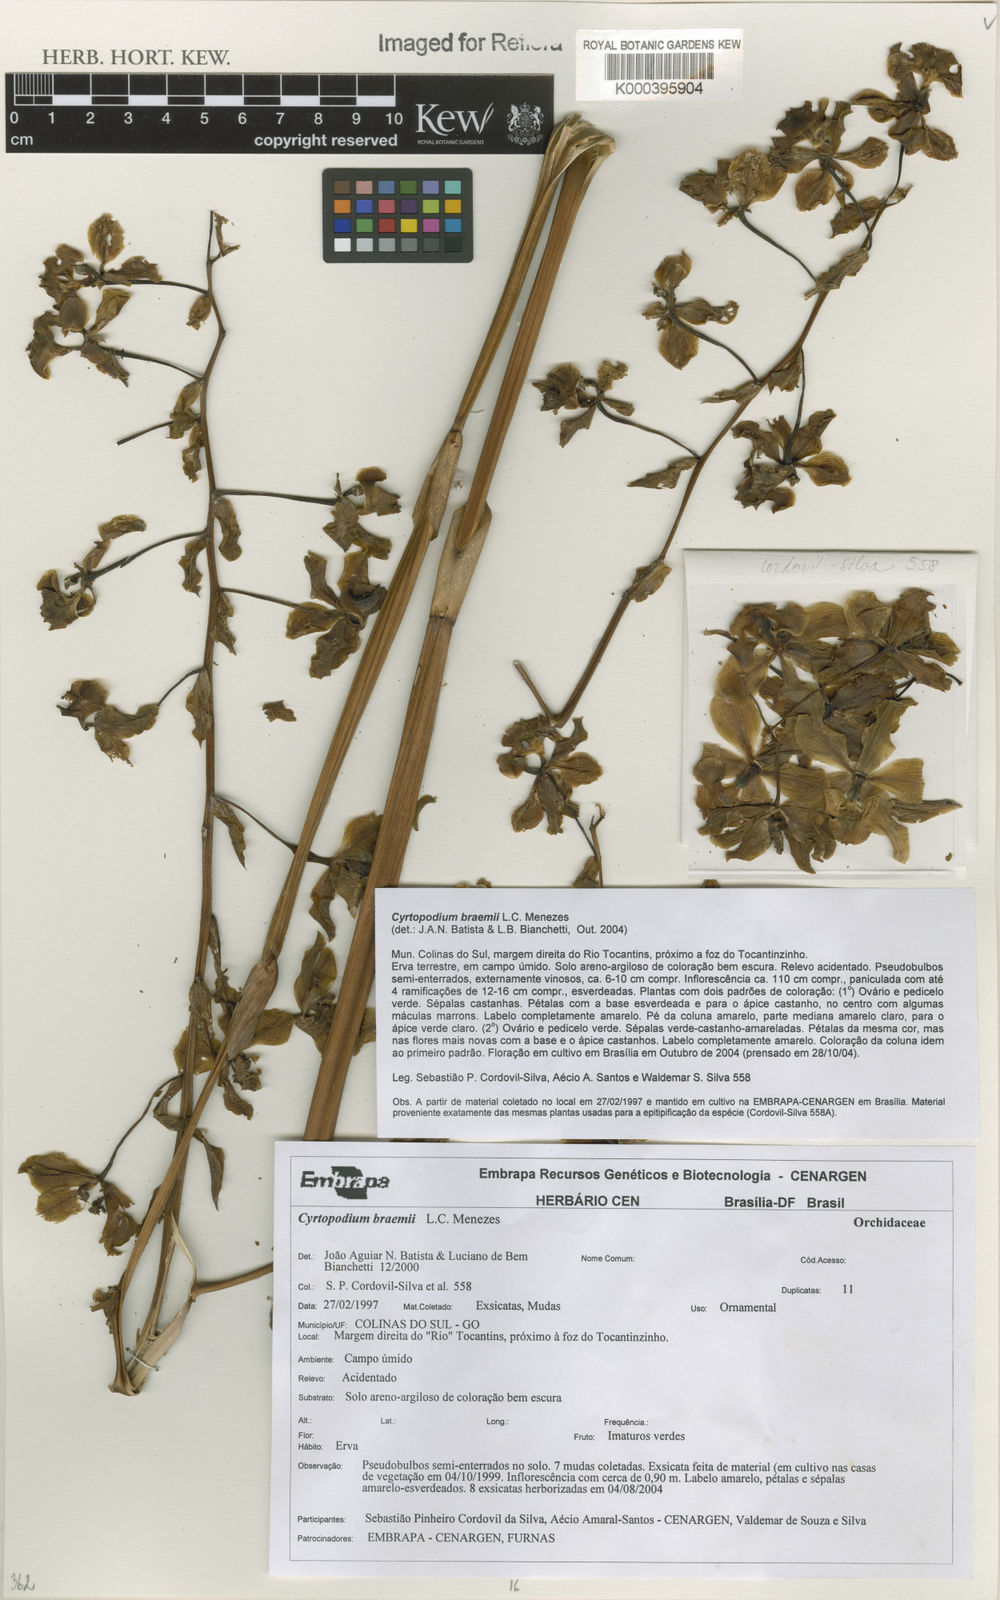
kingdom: Plantae
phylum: Tracheophyta
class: Liliopsida
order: Asparagales
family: Orchidaceae
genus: Cyrtopodium
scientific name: Cyrtopodium braemii
